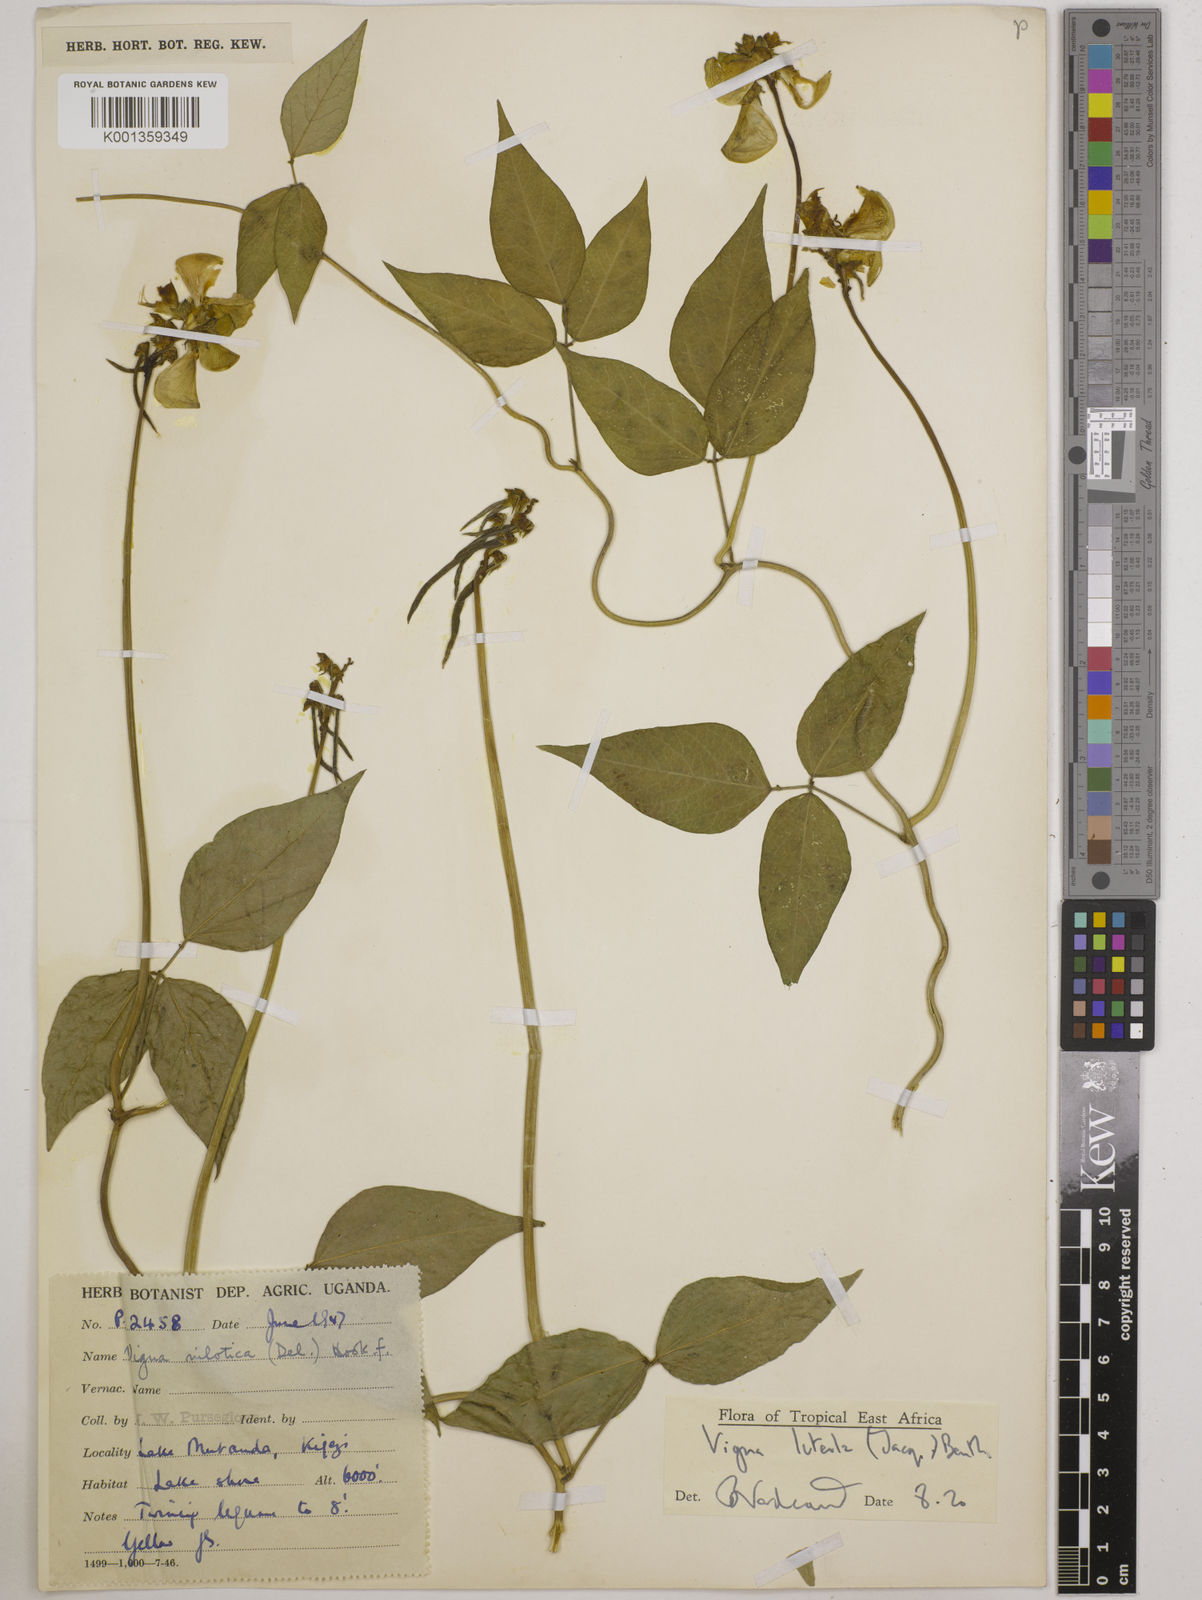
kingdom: Plantae
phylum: Tracheophyta
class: Magnoliopsida
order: Fabales
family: Fabaceae
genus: Vigna
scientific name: Vigna luteola
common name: Hairypod cowpea
